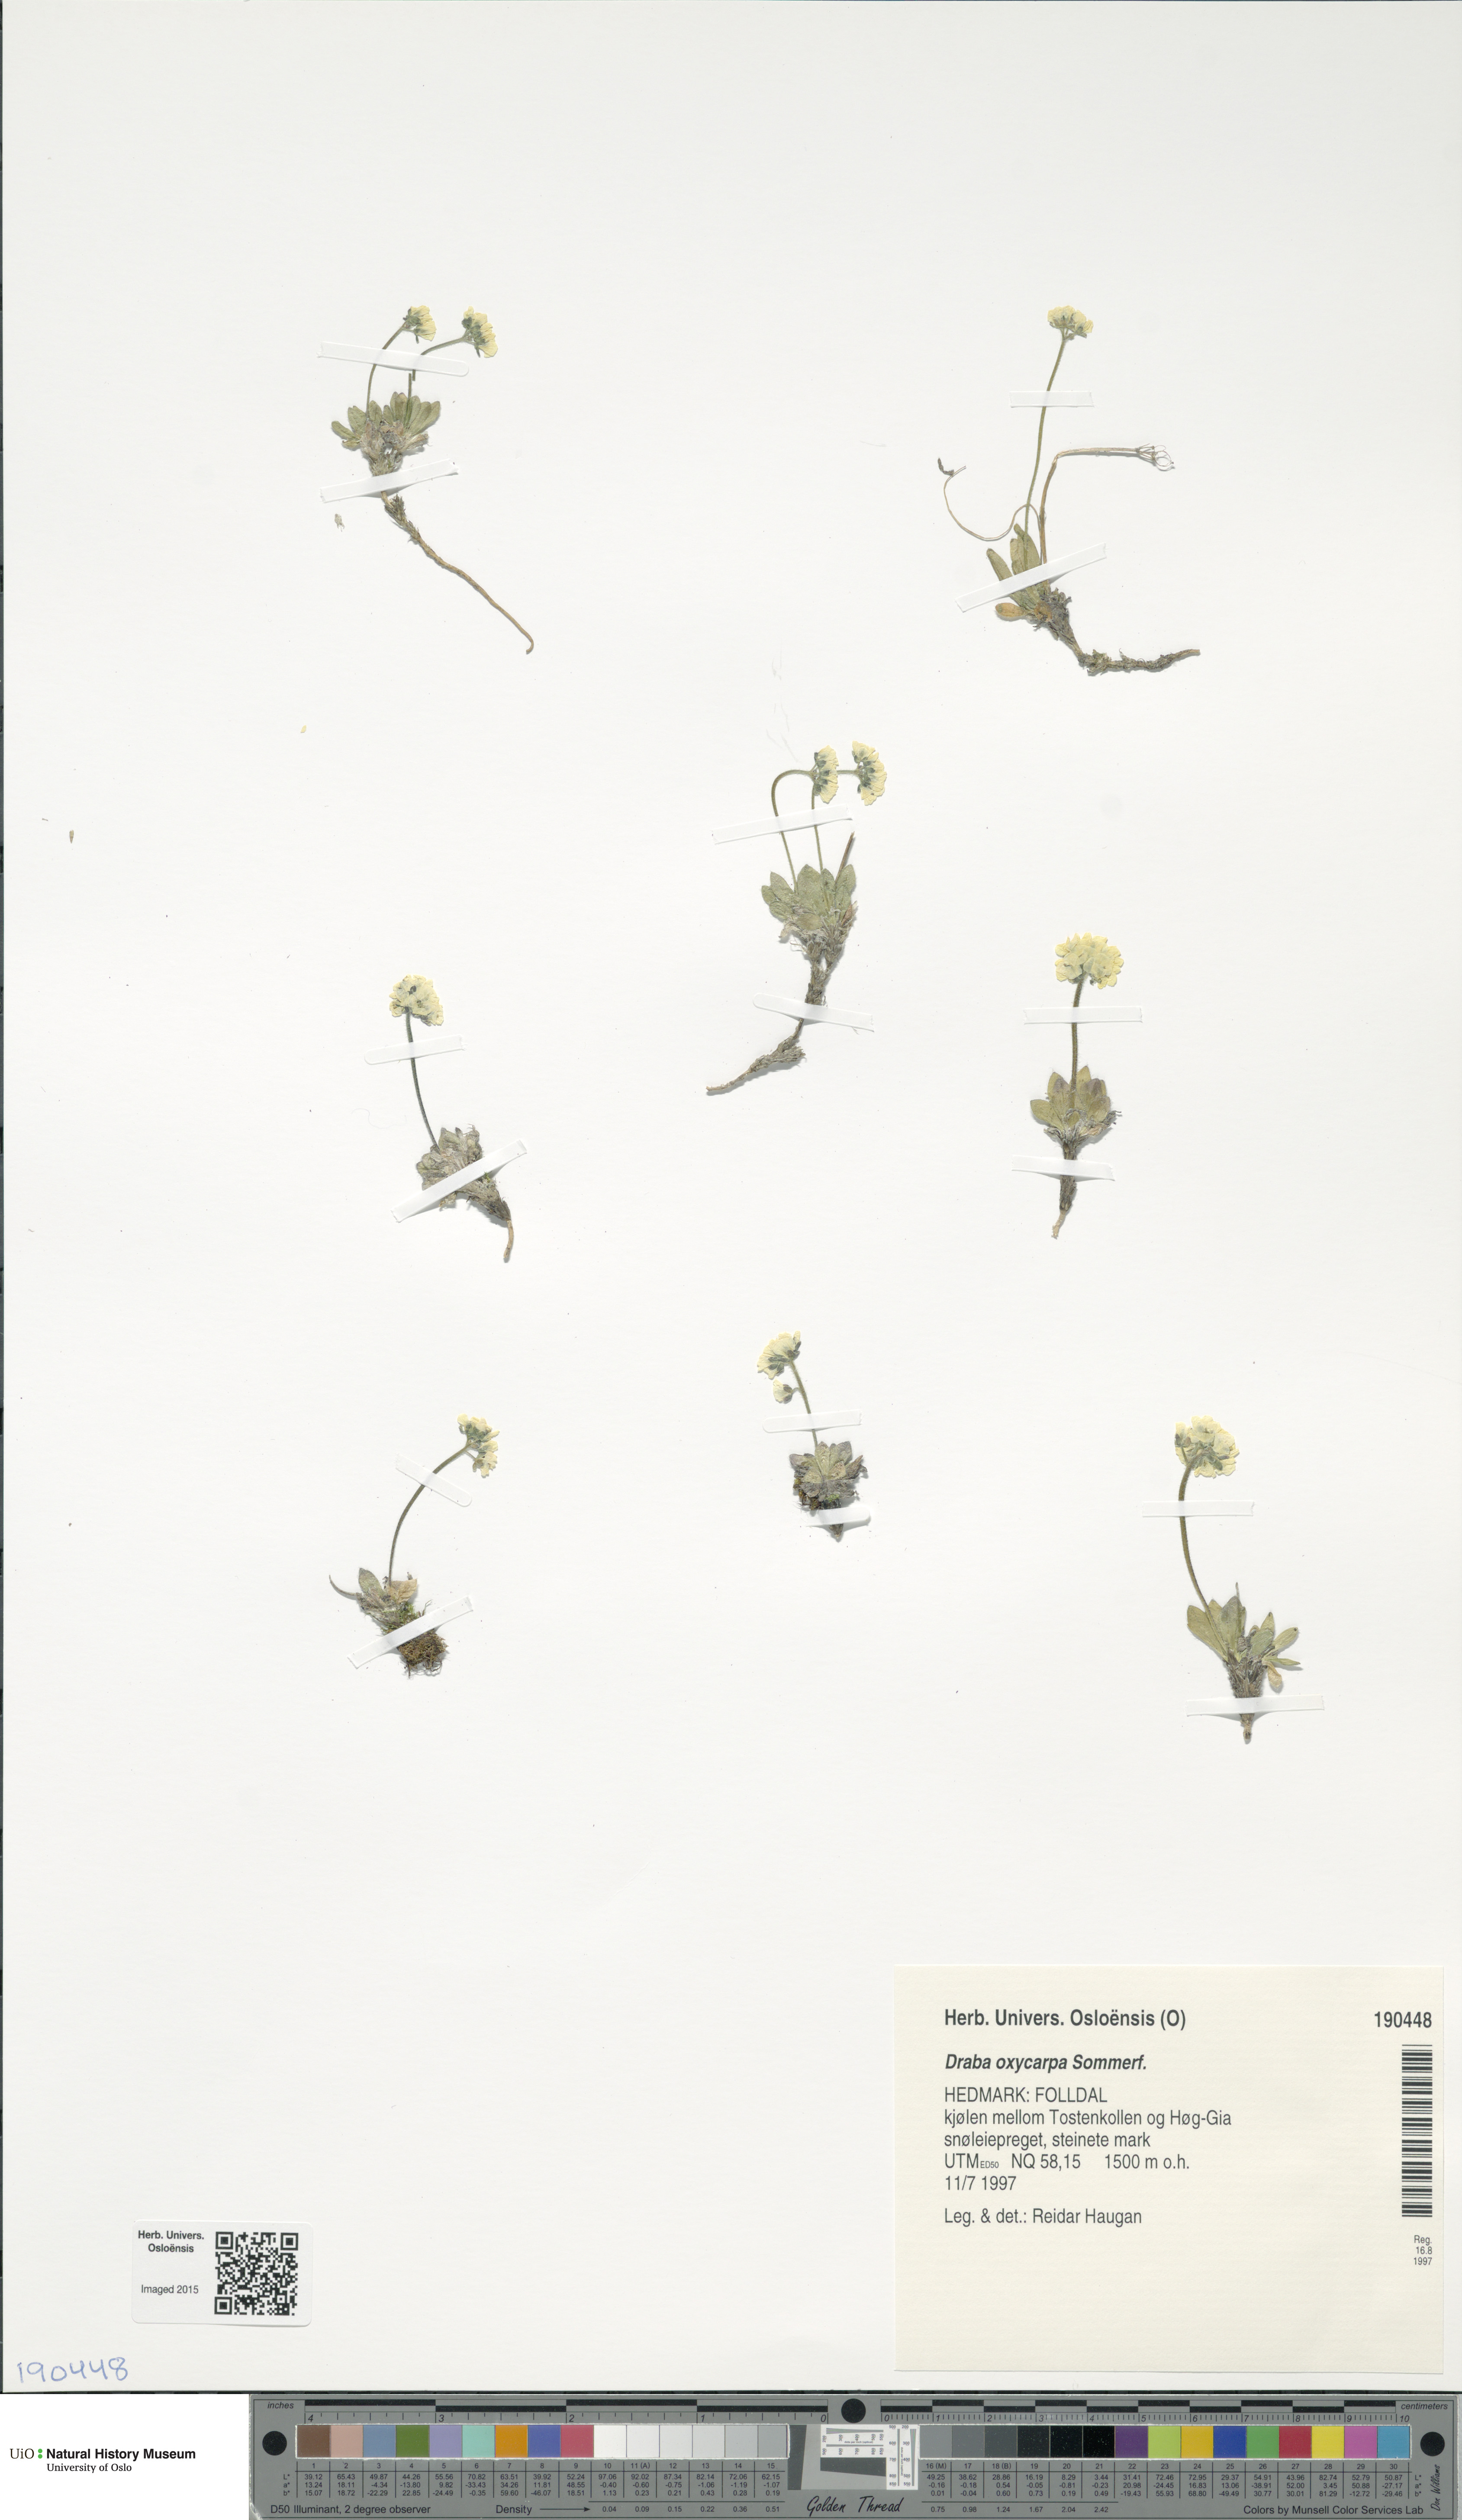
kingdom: Plantae
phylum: Tracheophyta
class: Magnoliopsida
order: Brassicales
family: Brassicaceae
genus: Draba
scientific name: Draba oxycarpa
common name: Sharp-fruited whitlow-grass
